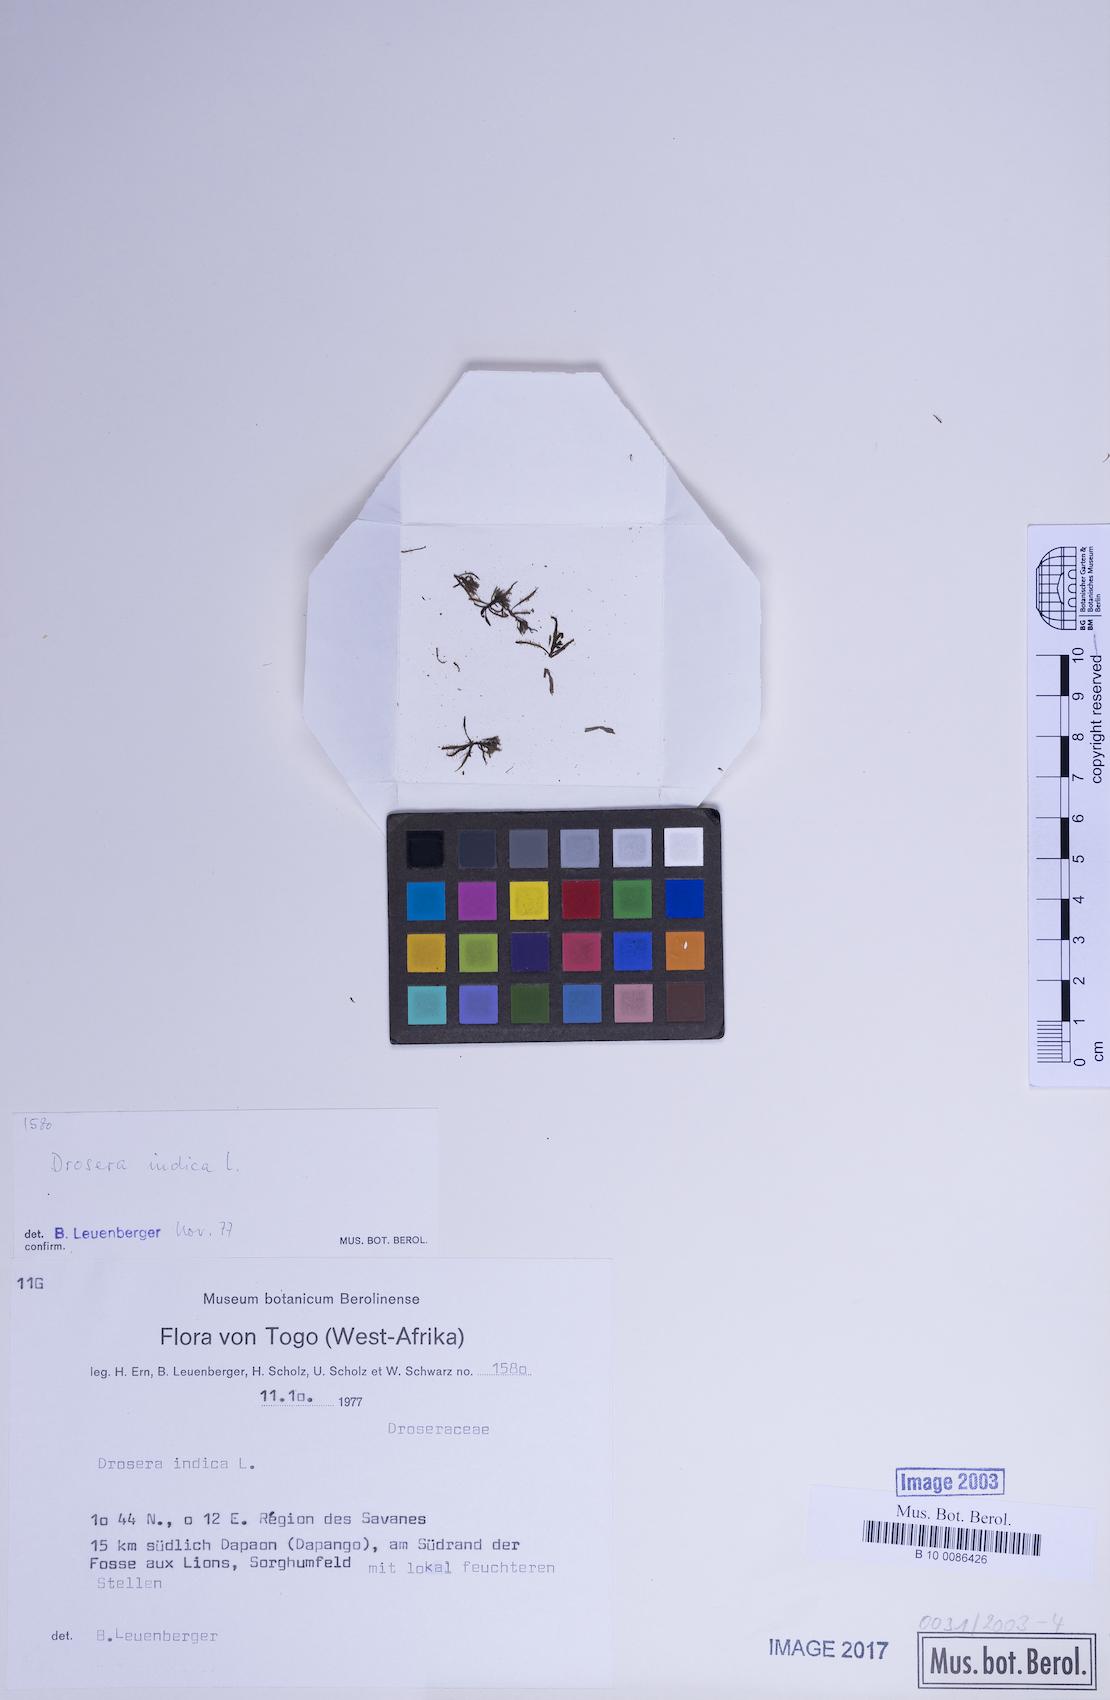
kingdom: Plantae
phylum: Tracheophyta
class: Magnoliopsida
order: Caryophyllales
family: Droseraceae
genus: Drosera
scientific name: Drosera indica
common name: Indian sundew
